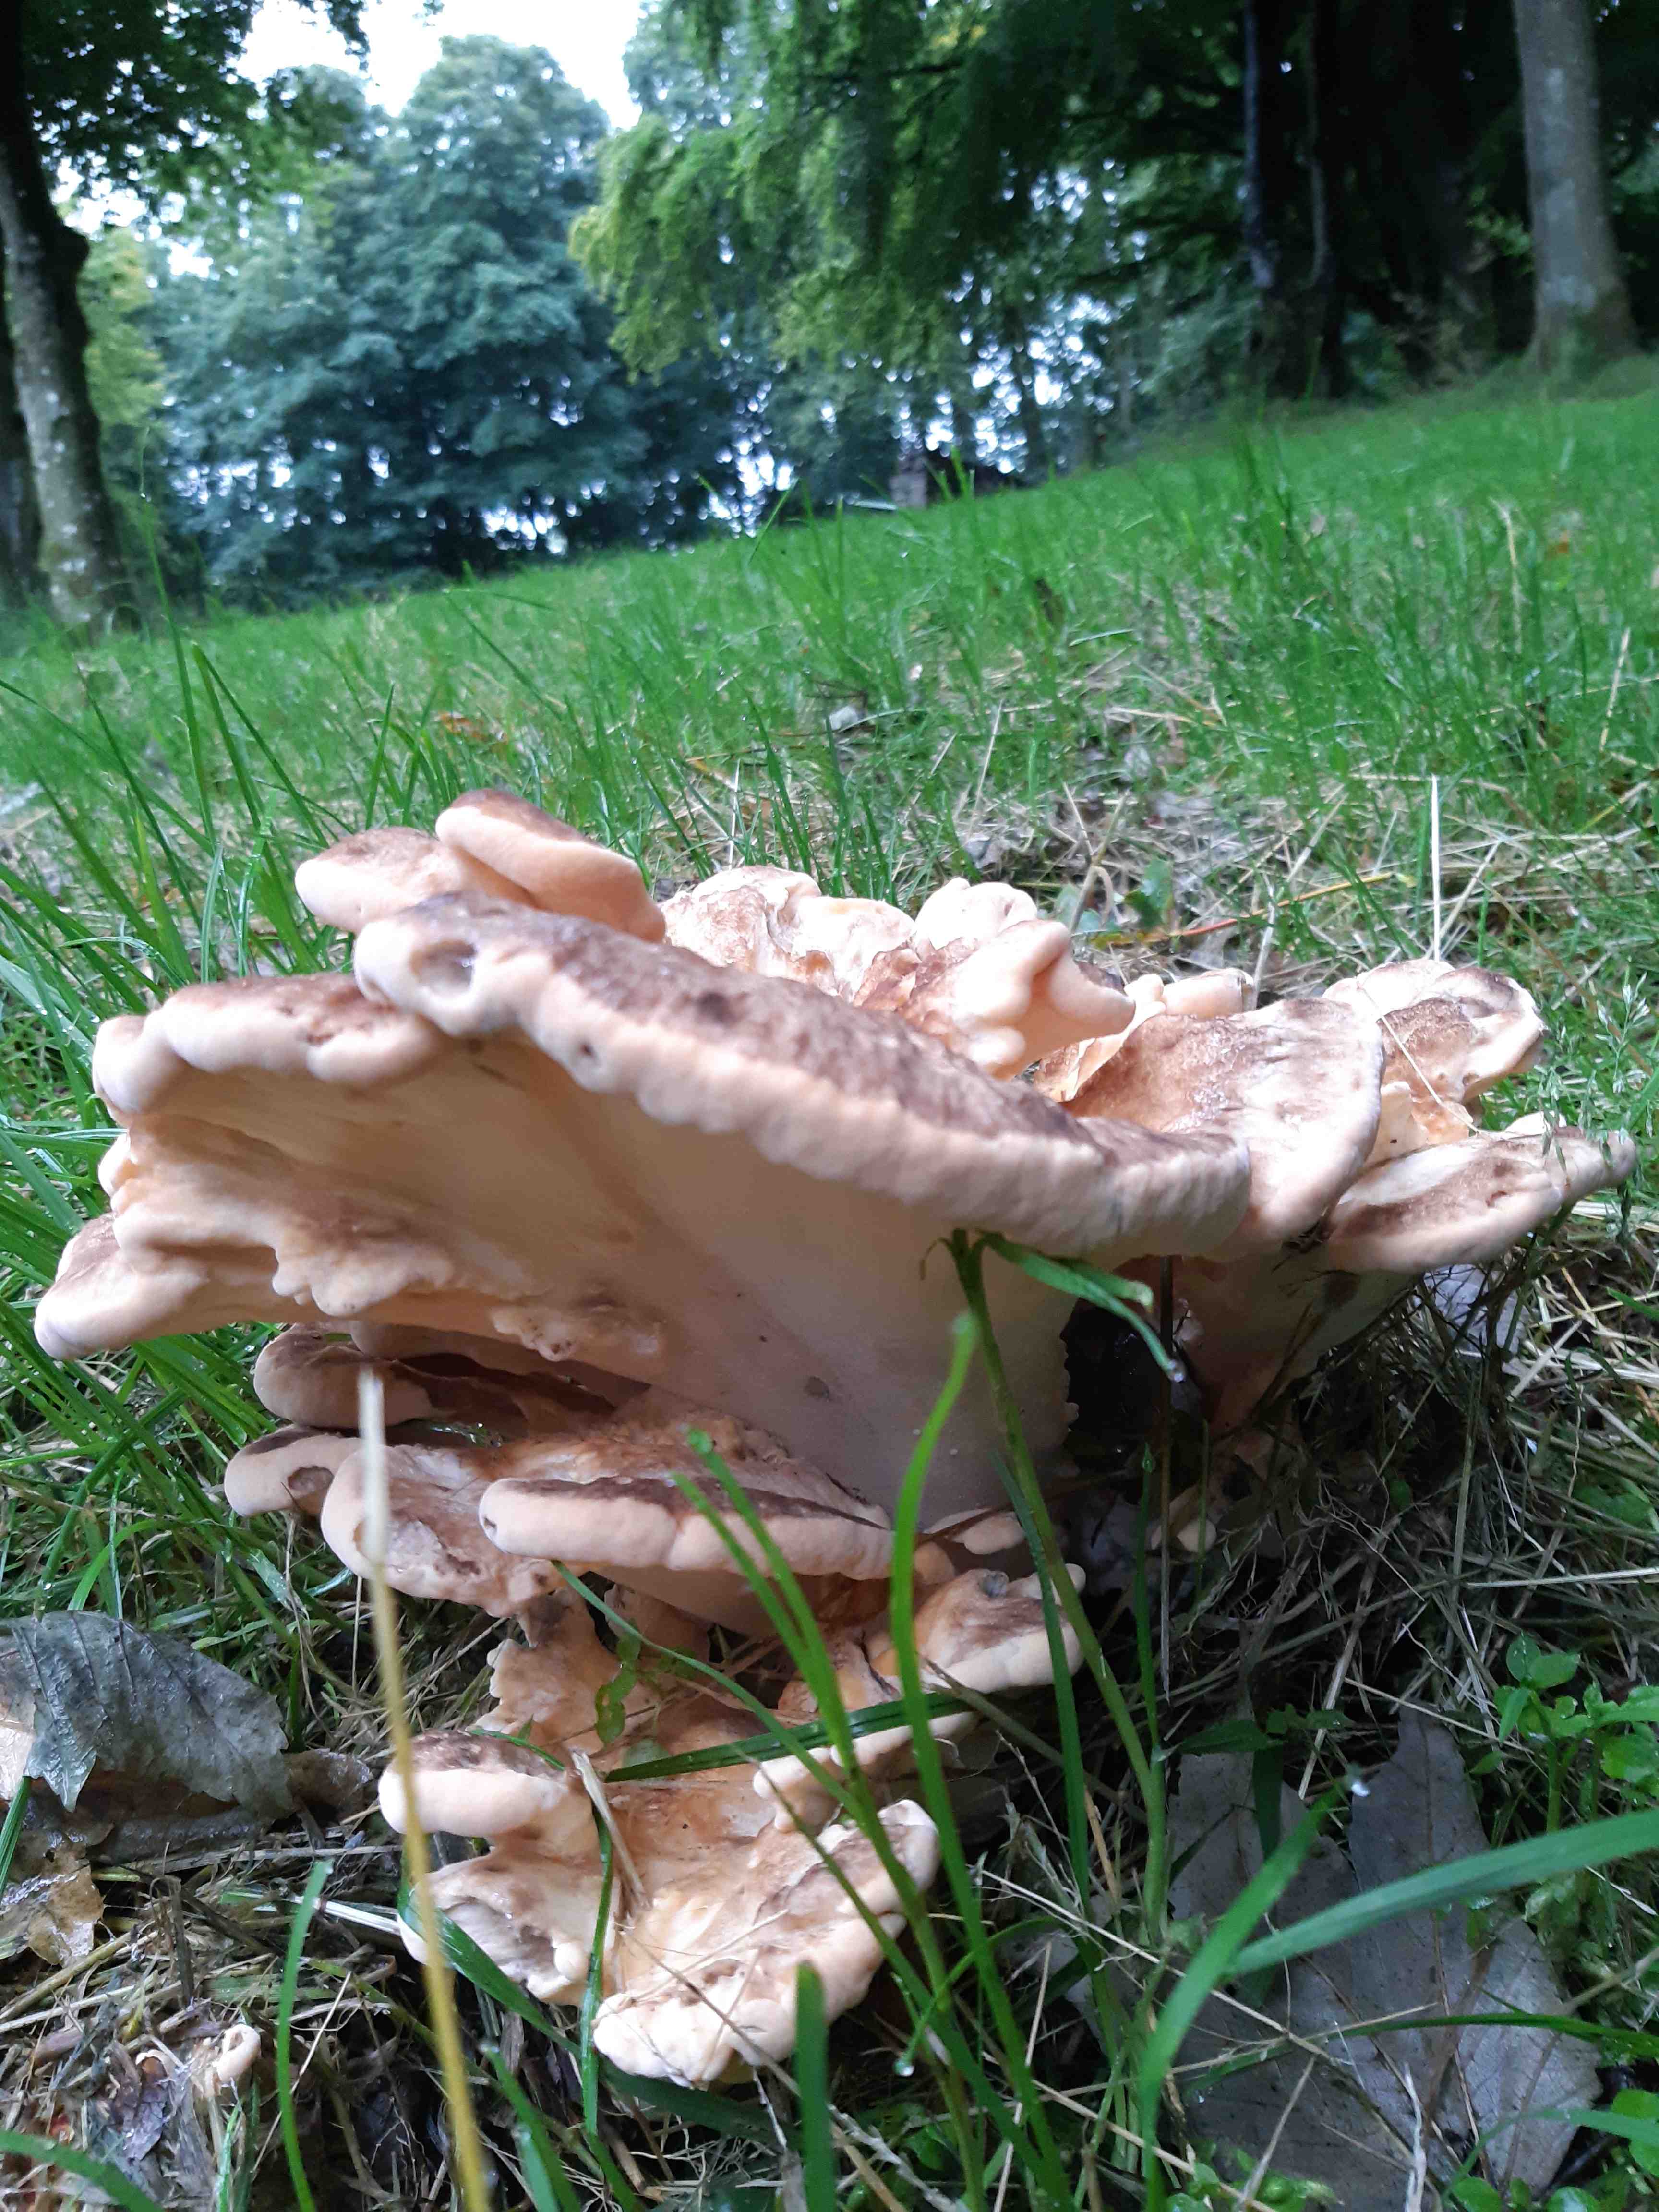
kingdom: Fungi
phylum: Basidiomycota
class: Agaricomycetes
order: Polyporales
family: Meripilaceae
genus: Meripilus
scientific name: Meripilus giganteus
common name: kæmpeporesvamp
